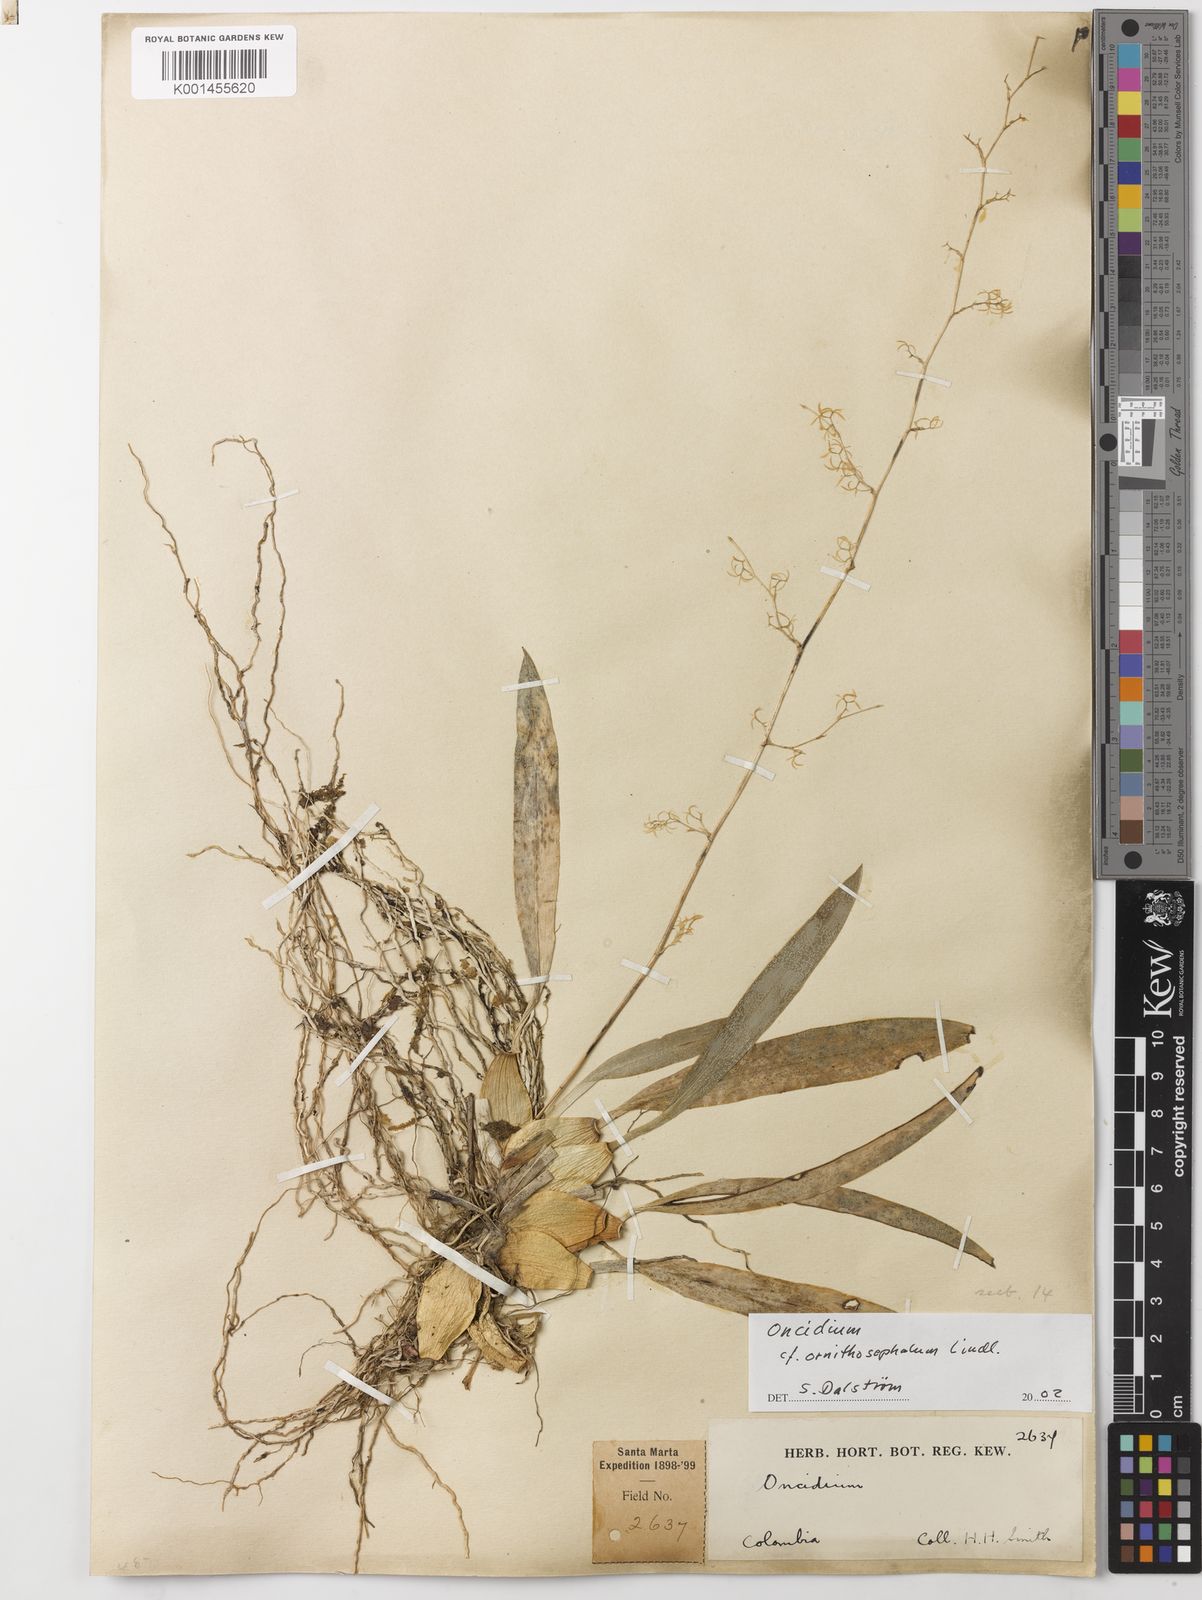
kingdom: Plantae
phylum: Tracheophyta
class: Liliopsida
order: Asparagales
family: Orchidaceae
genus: Oncidium
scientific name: Oncidium ornithocephalum
